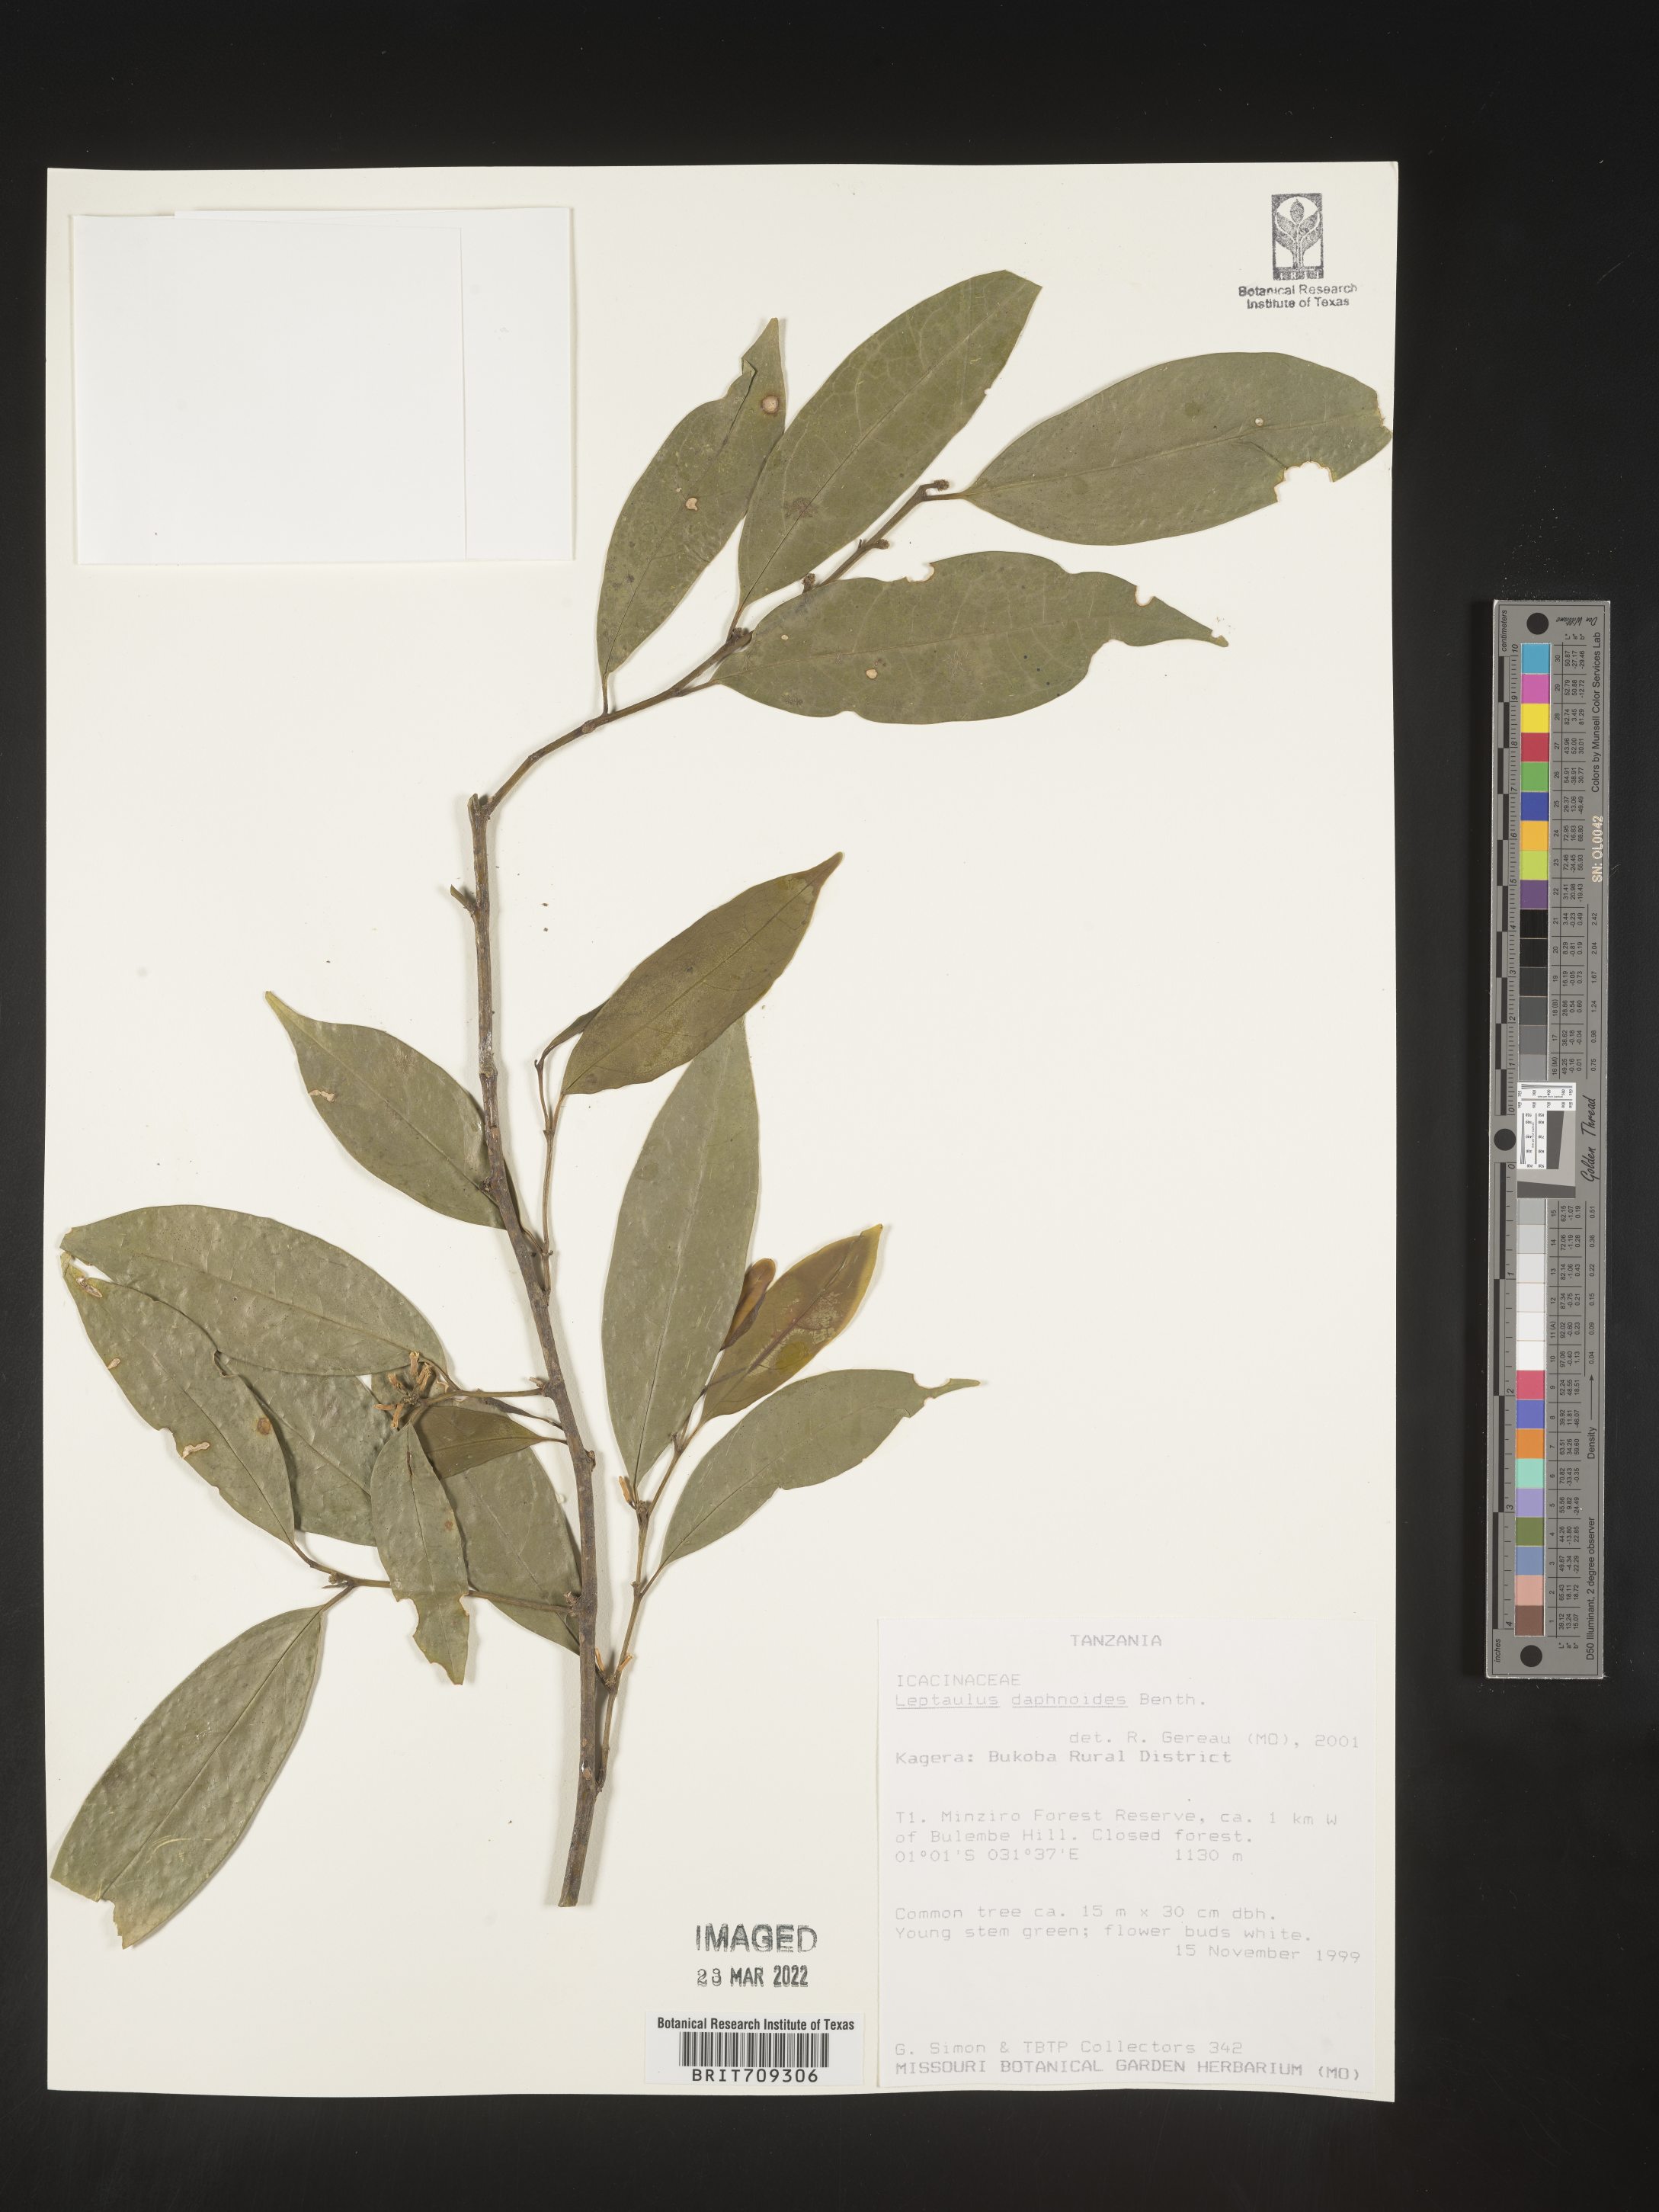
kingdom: Plantae
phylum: Tracheophyta
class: Magnoliopsida
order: Cardiopteridales
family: Cardiopteridaceae
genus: Leptaulus
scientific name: Leptaulus
